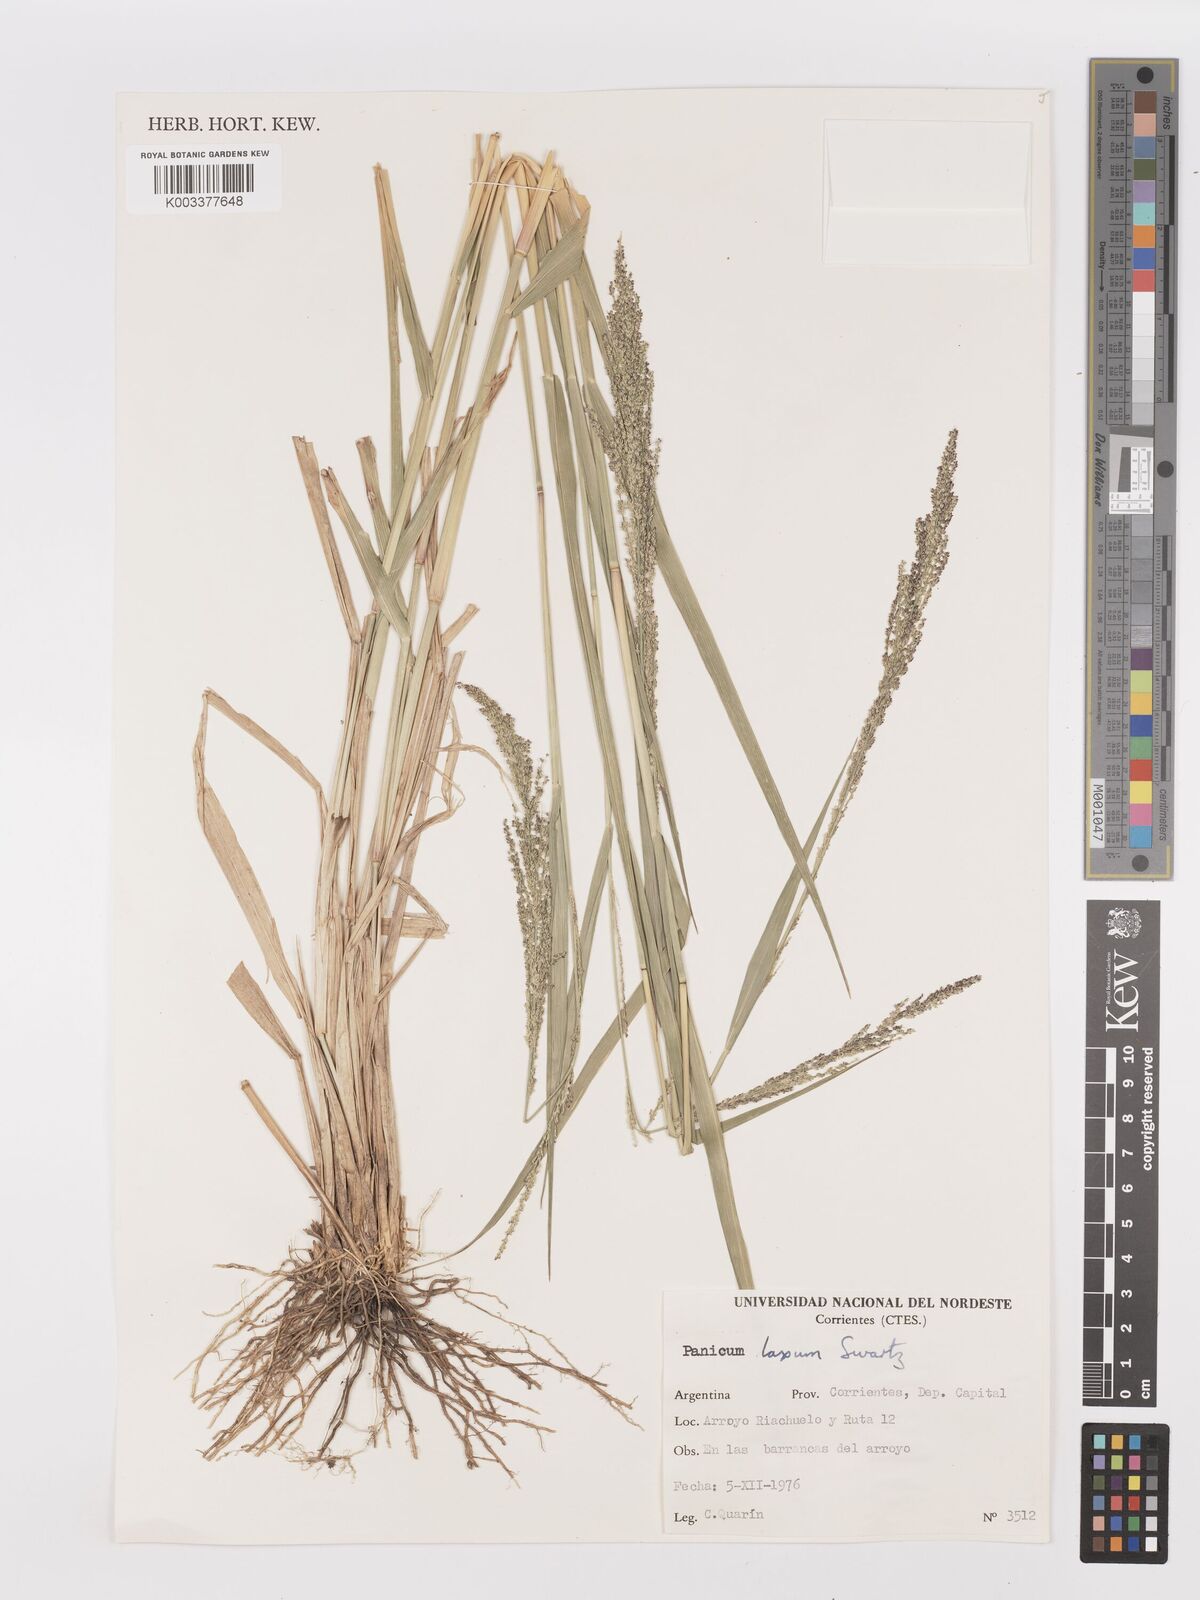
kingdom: Plantae
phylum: Tracheophyta
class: Liliopsida
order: Poales
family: Poaceae
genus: Steinchisma
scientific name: Steinchisma laxum
